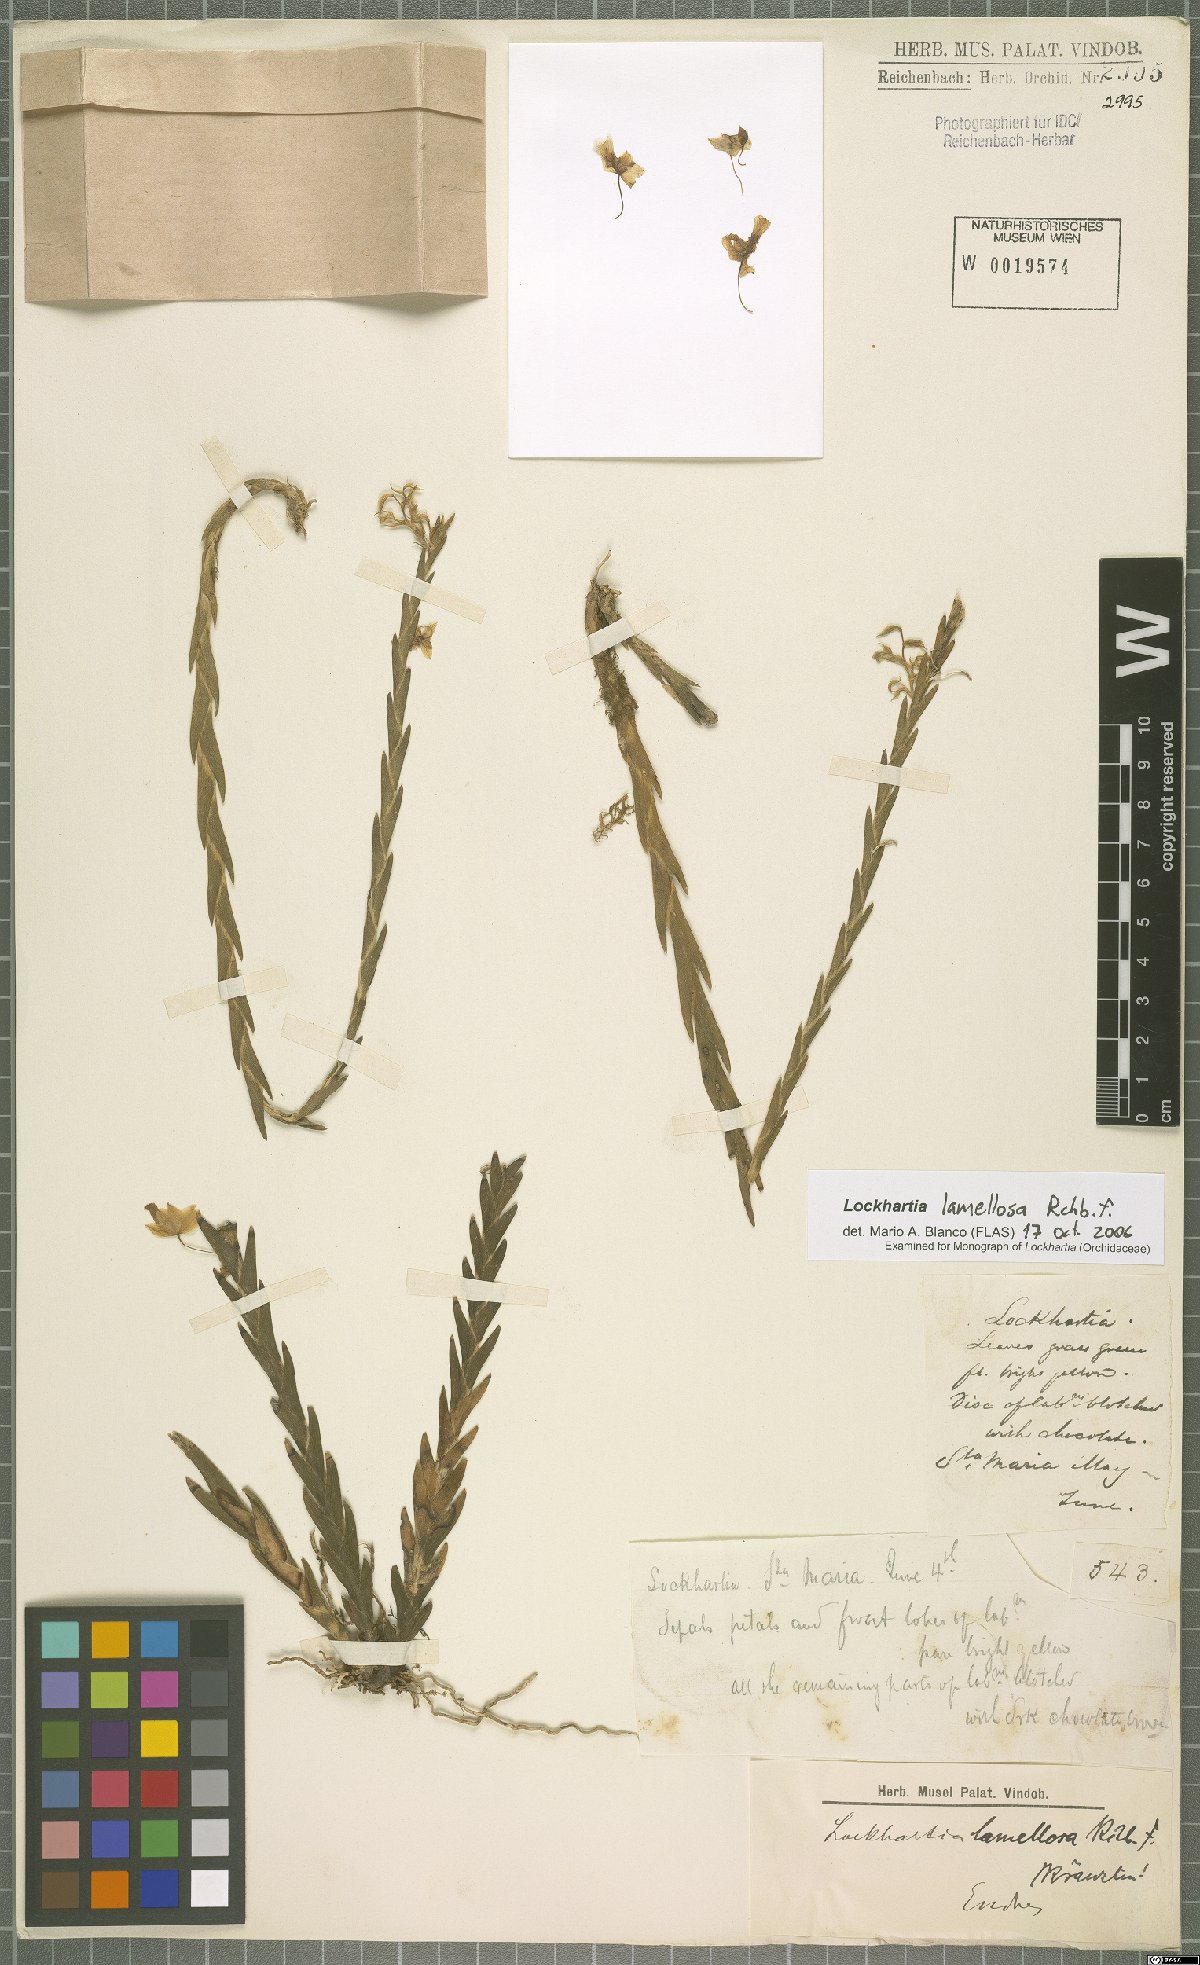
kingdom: Plantae
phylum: Tracheophyta
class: Liliopsida
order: Asparagales
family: Orchidaceae
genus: Lockhartia
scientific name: Lockhartia oerstedii
